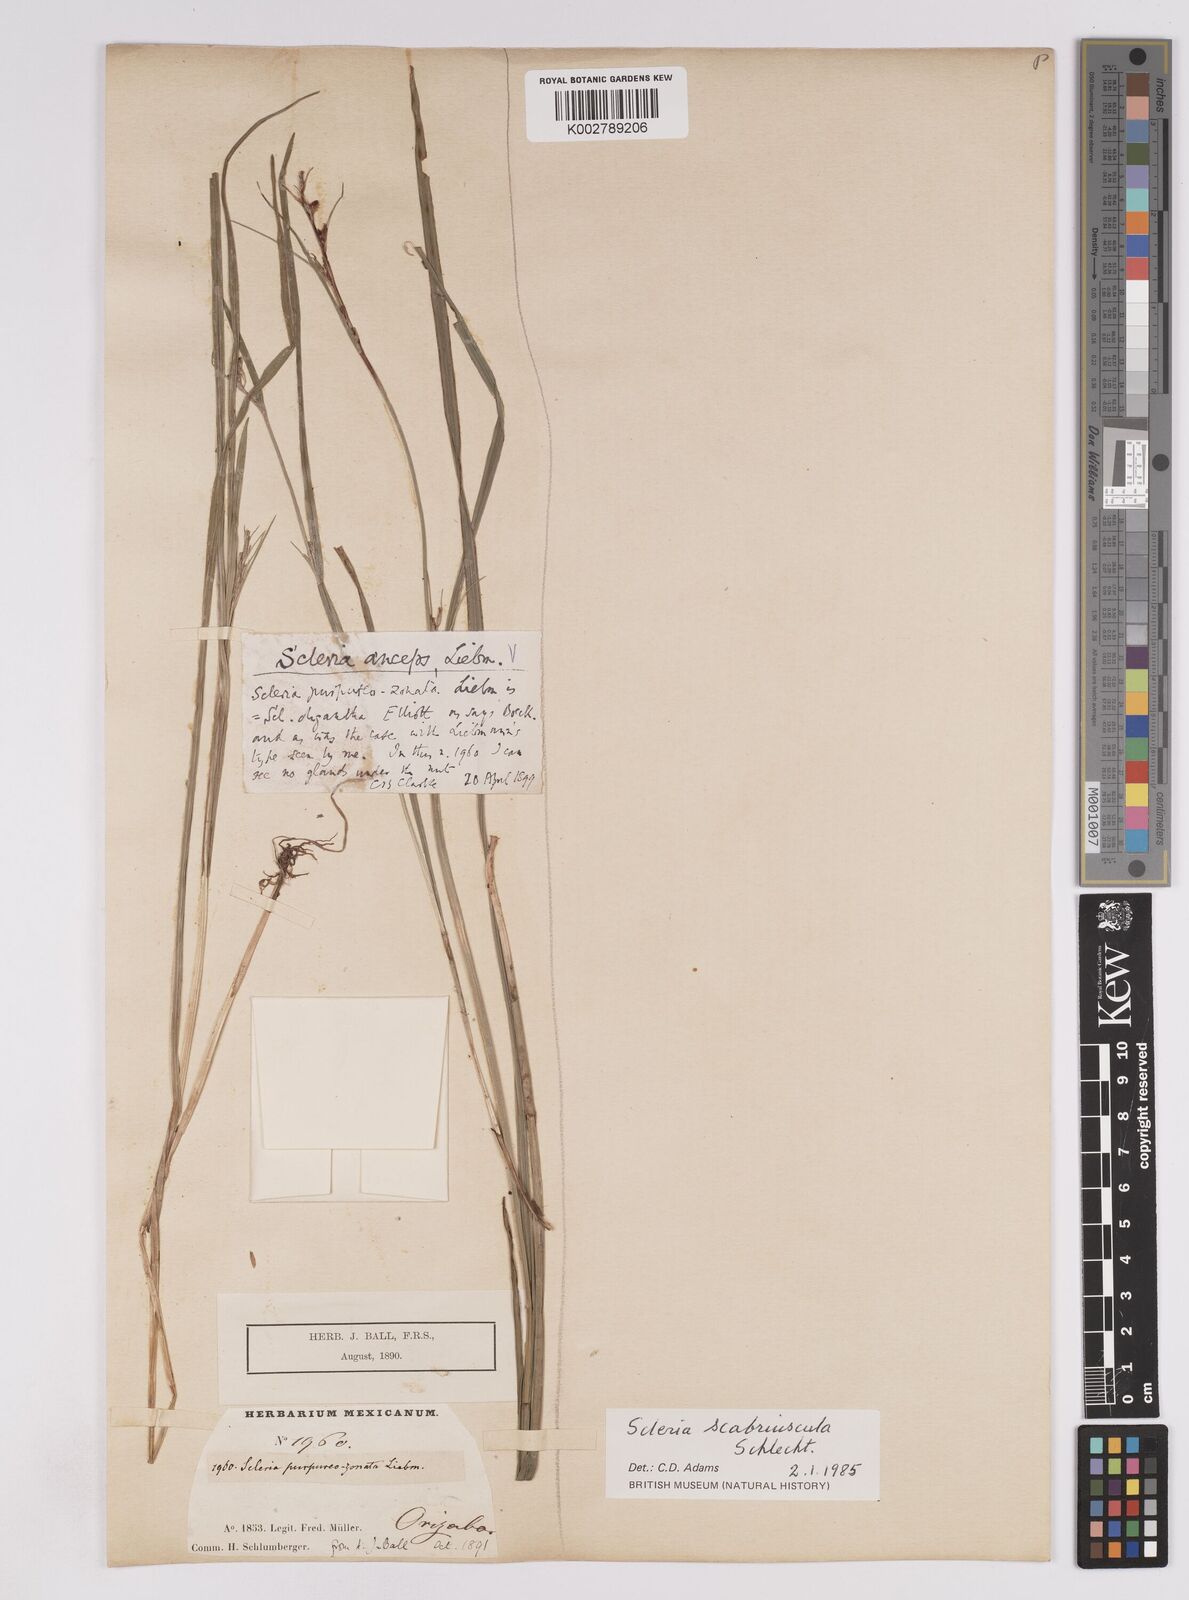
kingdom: Plantae
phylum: Tracheophyta
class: Liliopsida
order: Poales
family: Cyperaceae
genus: Scleria
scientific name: Scleria scabriuscula
